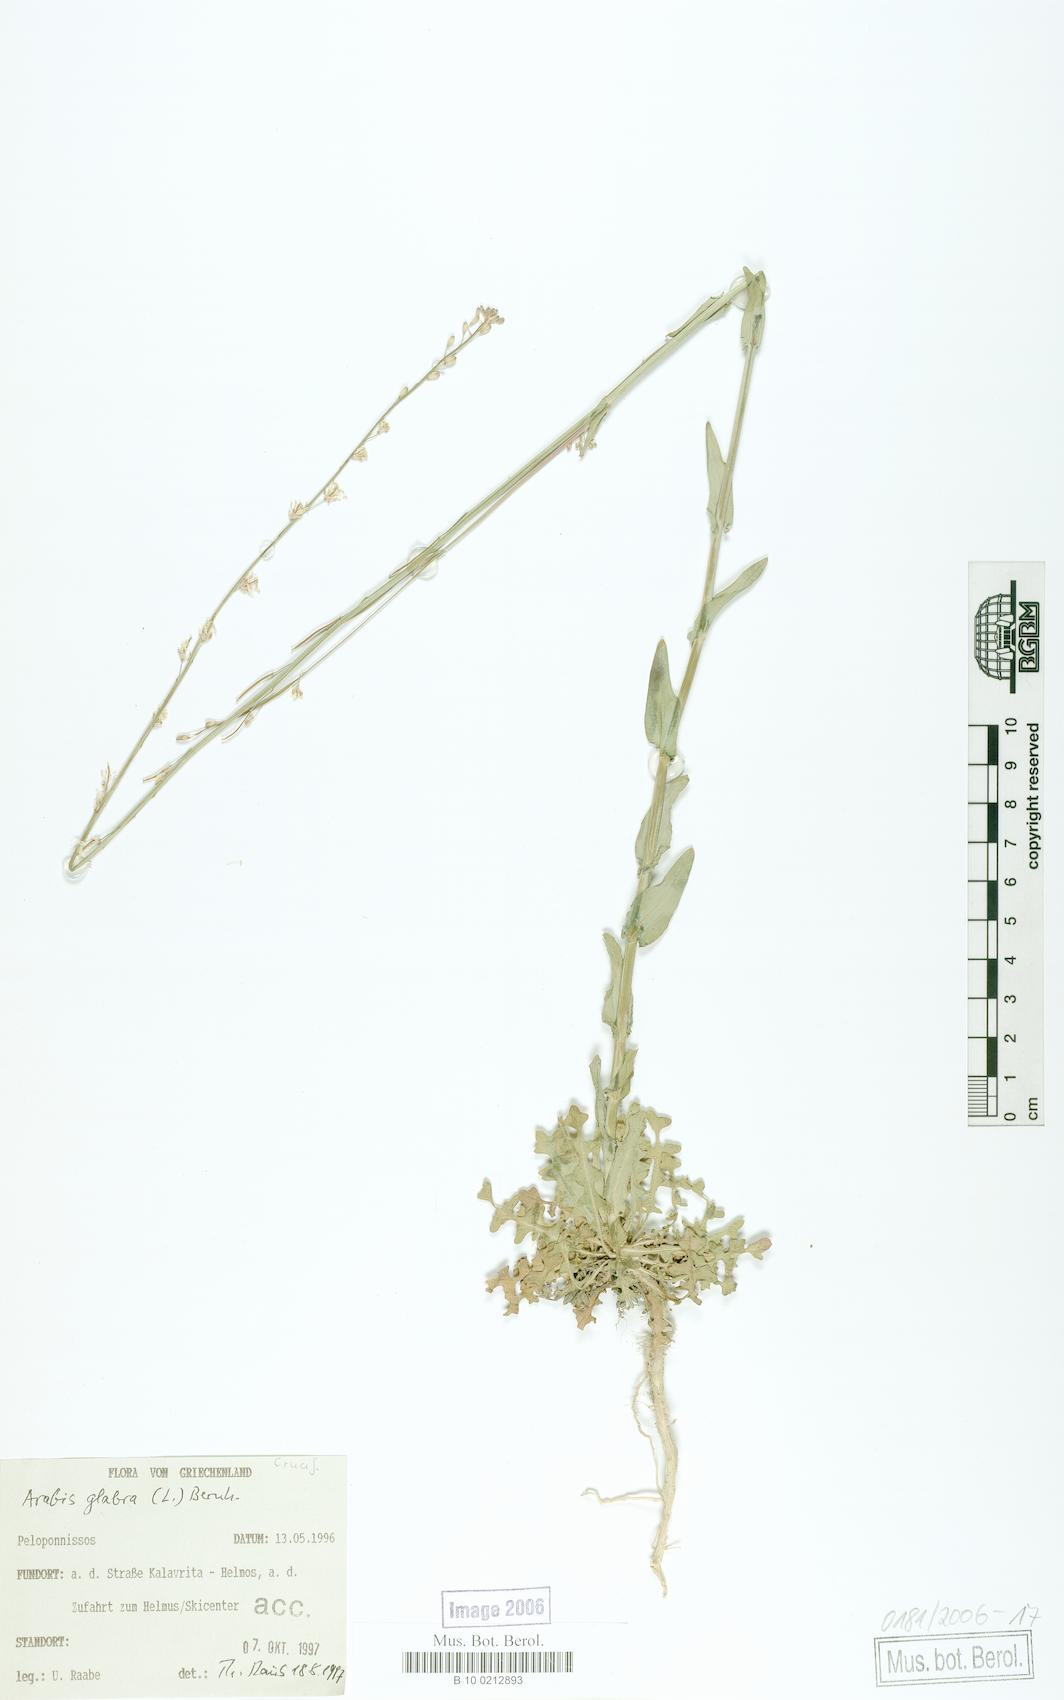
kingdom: Plantae
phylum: Tracheophyta
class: Magnoliopsida
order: Brassicales
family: Brassicaceae
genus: Turritis
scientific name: Turritis glabra
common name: Tower rockcress
